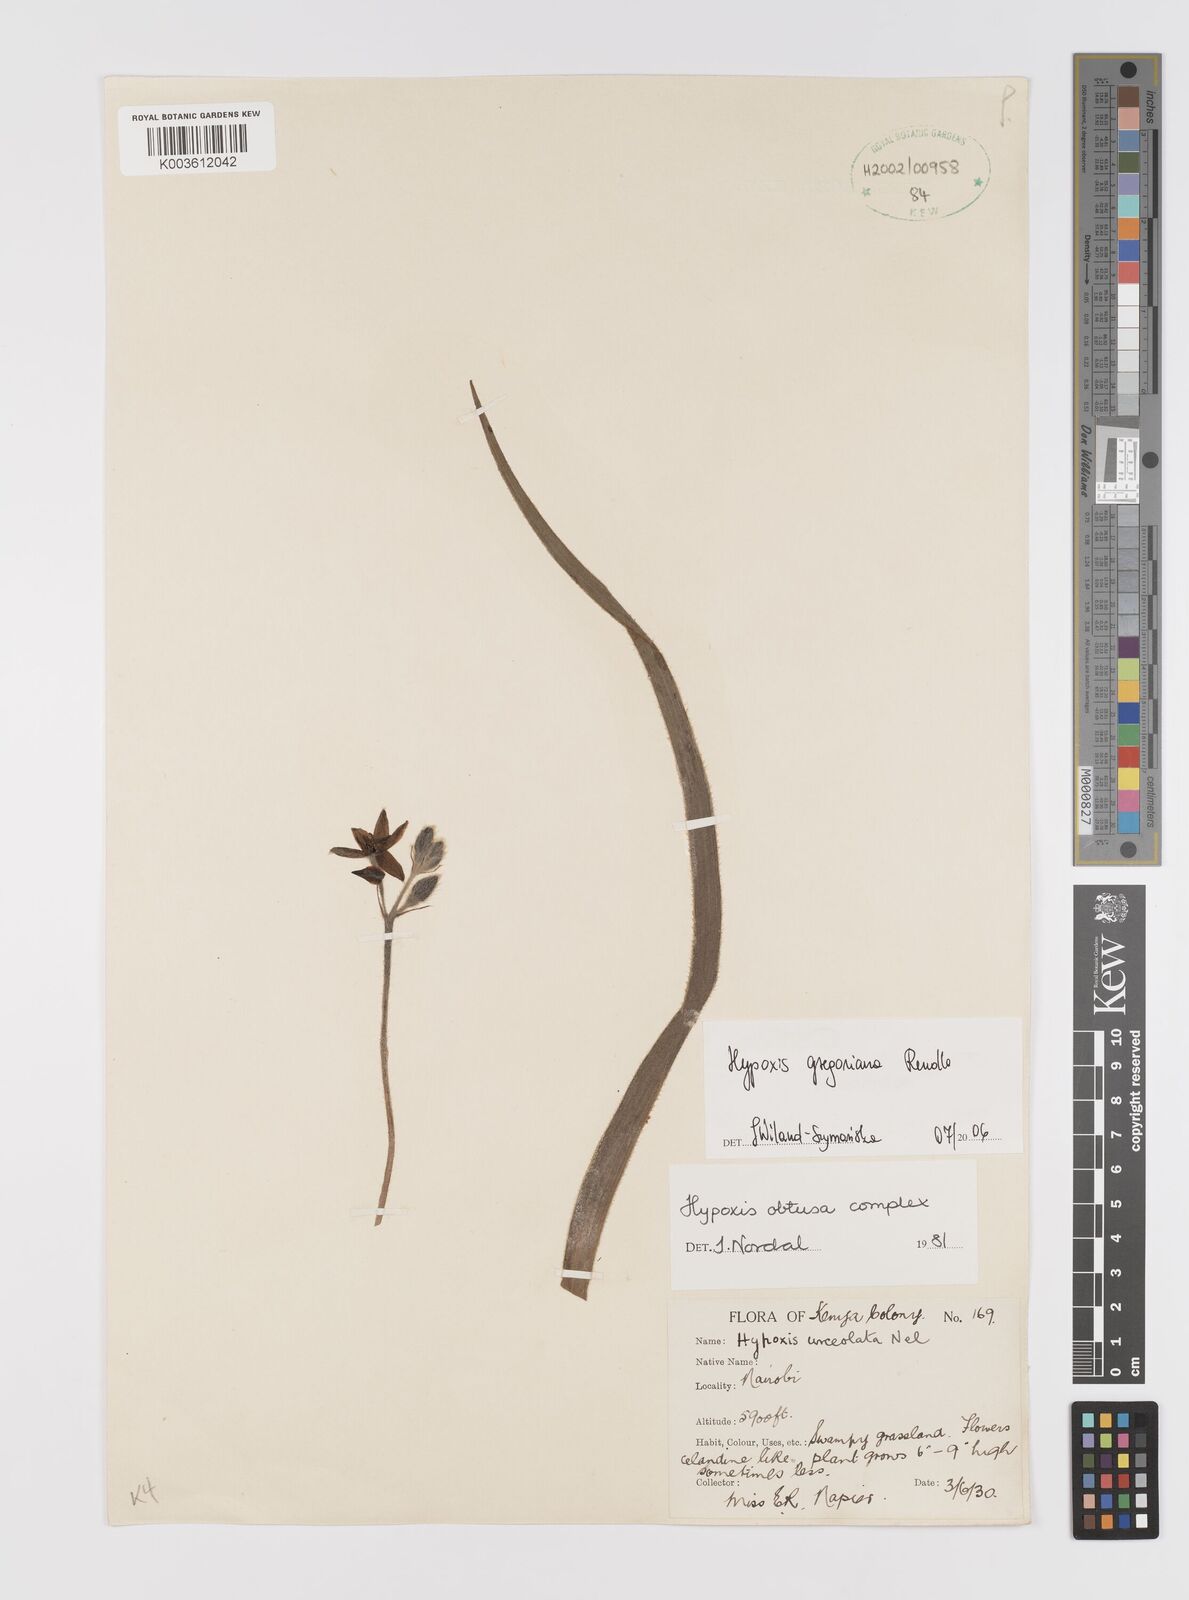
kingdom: Plantae
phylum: Tracheophyta
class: Liliopsida
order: Asparagales
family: Hypoxidaceae
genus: Hypoxis
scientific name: Hypoxis gregoriana
